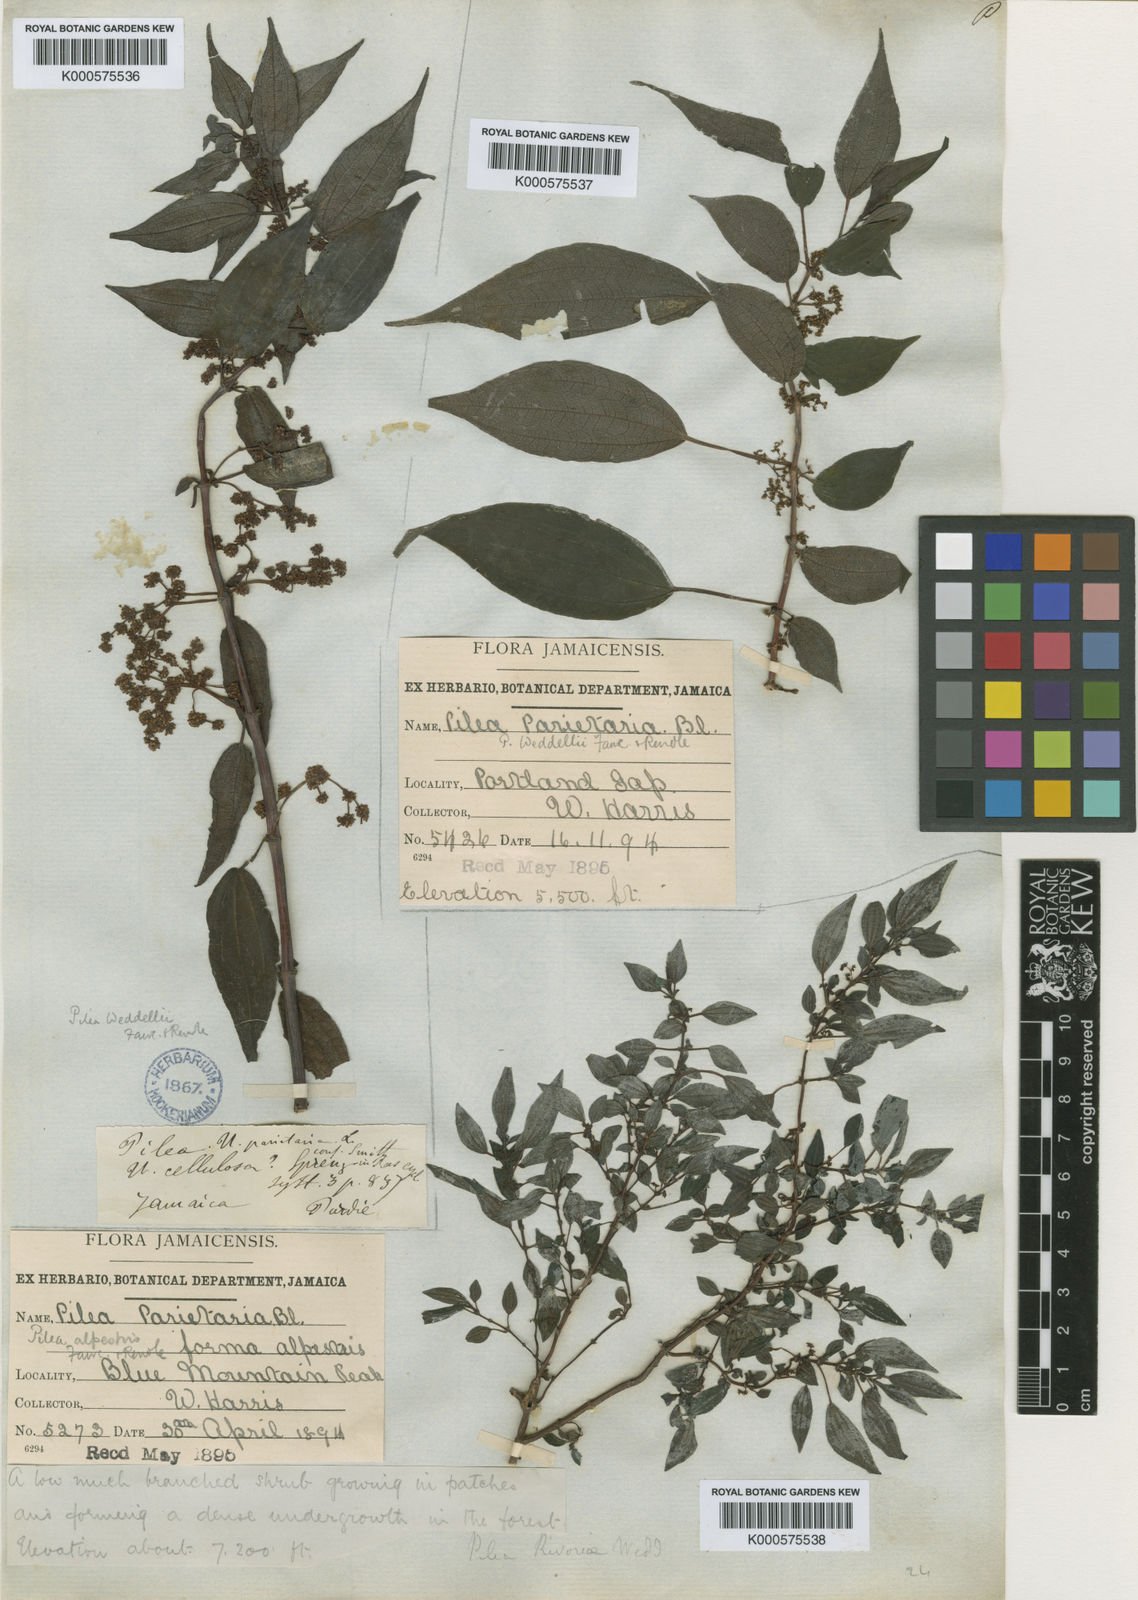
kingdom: Plantae
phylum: Tracheophyta
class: Magnoliopsida
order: Rosales
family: Urticaceae
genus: Pilea
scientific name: Pilea parietaria
